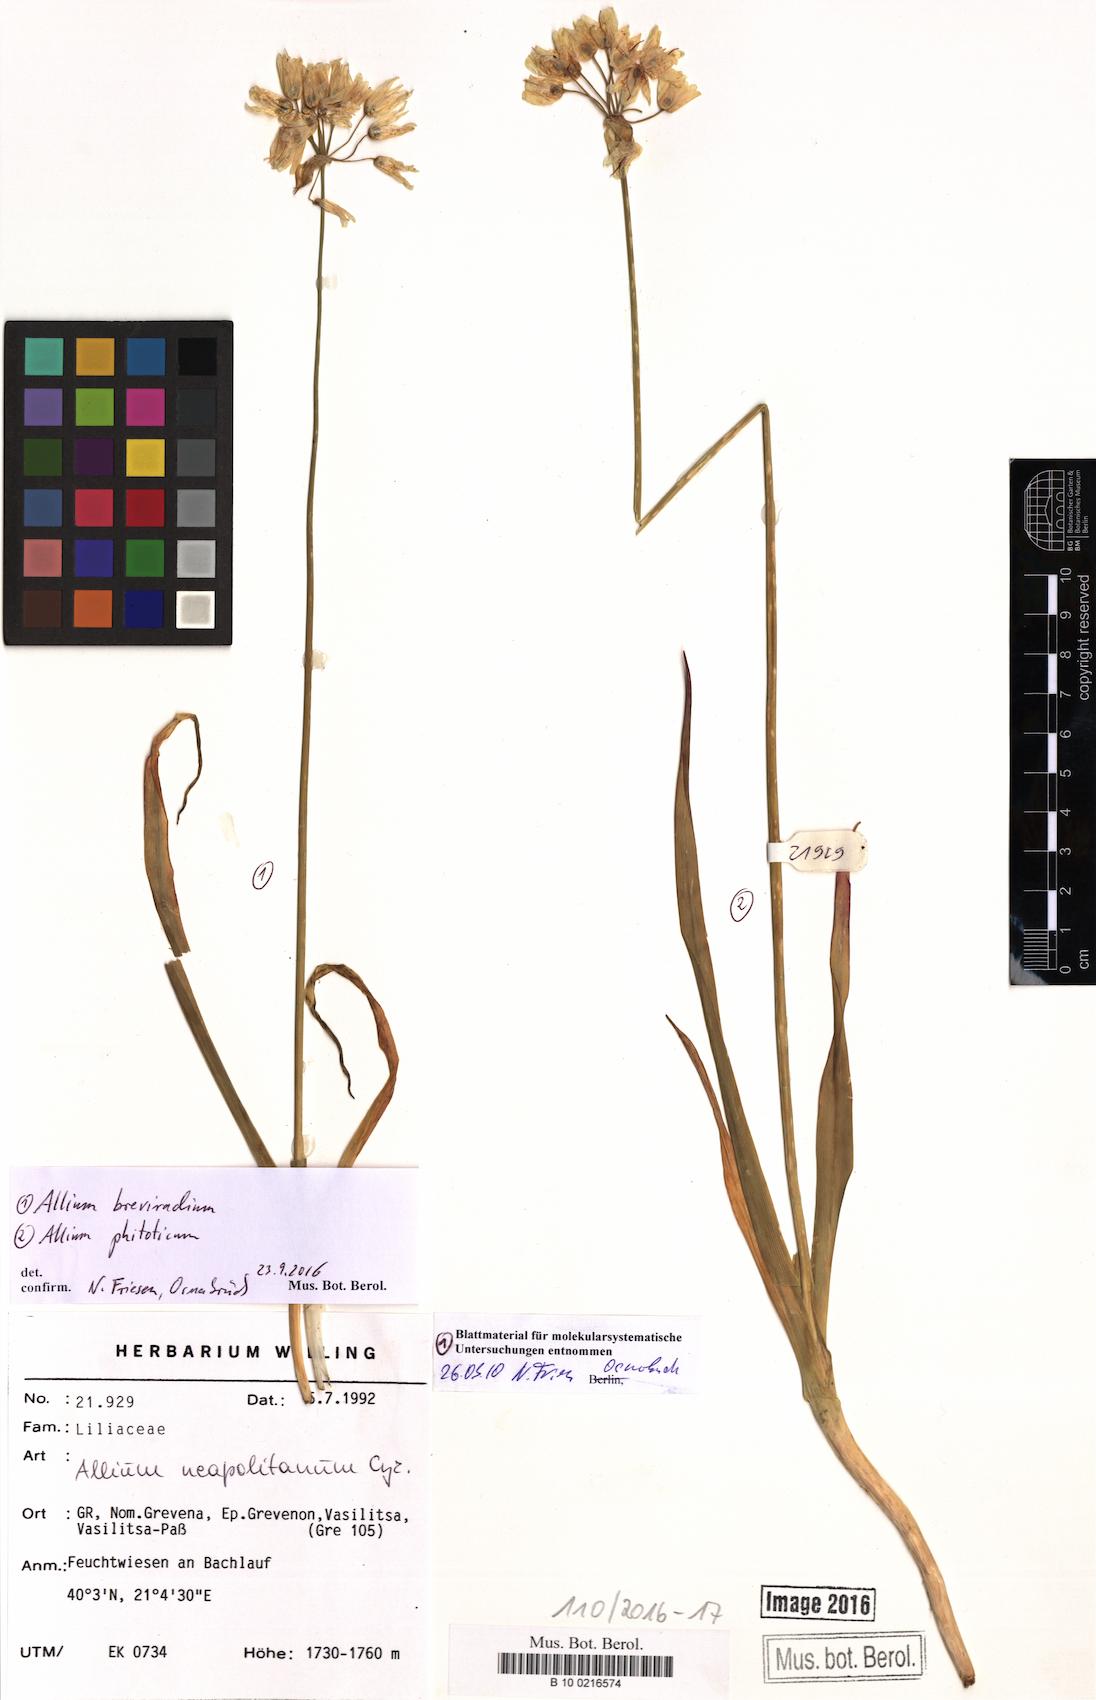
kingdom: Plantae
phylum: Tracheophyta
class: Liliopsida
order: Asparagales
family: Amaryllidaceae
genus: Allium
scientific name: Allium phthioticum
